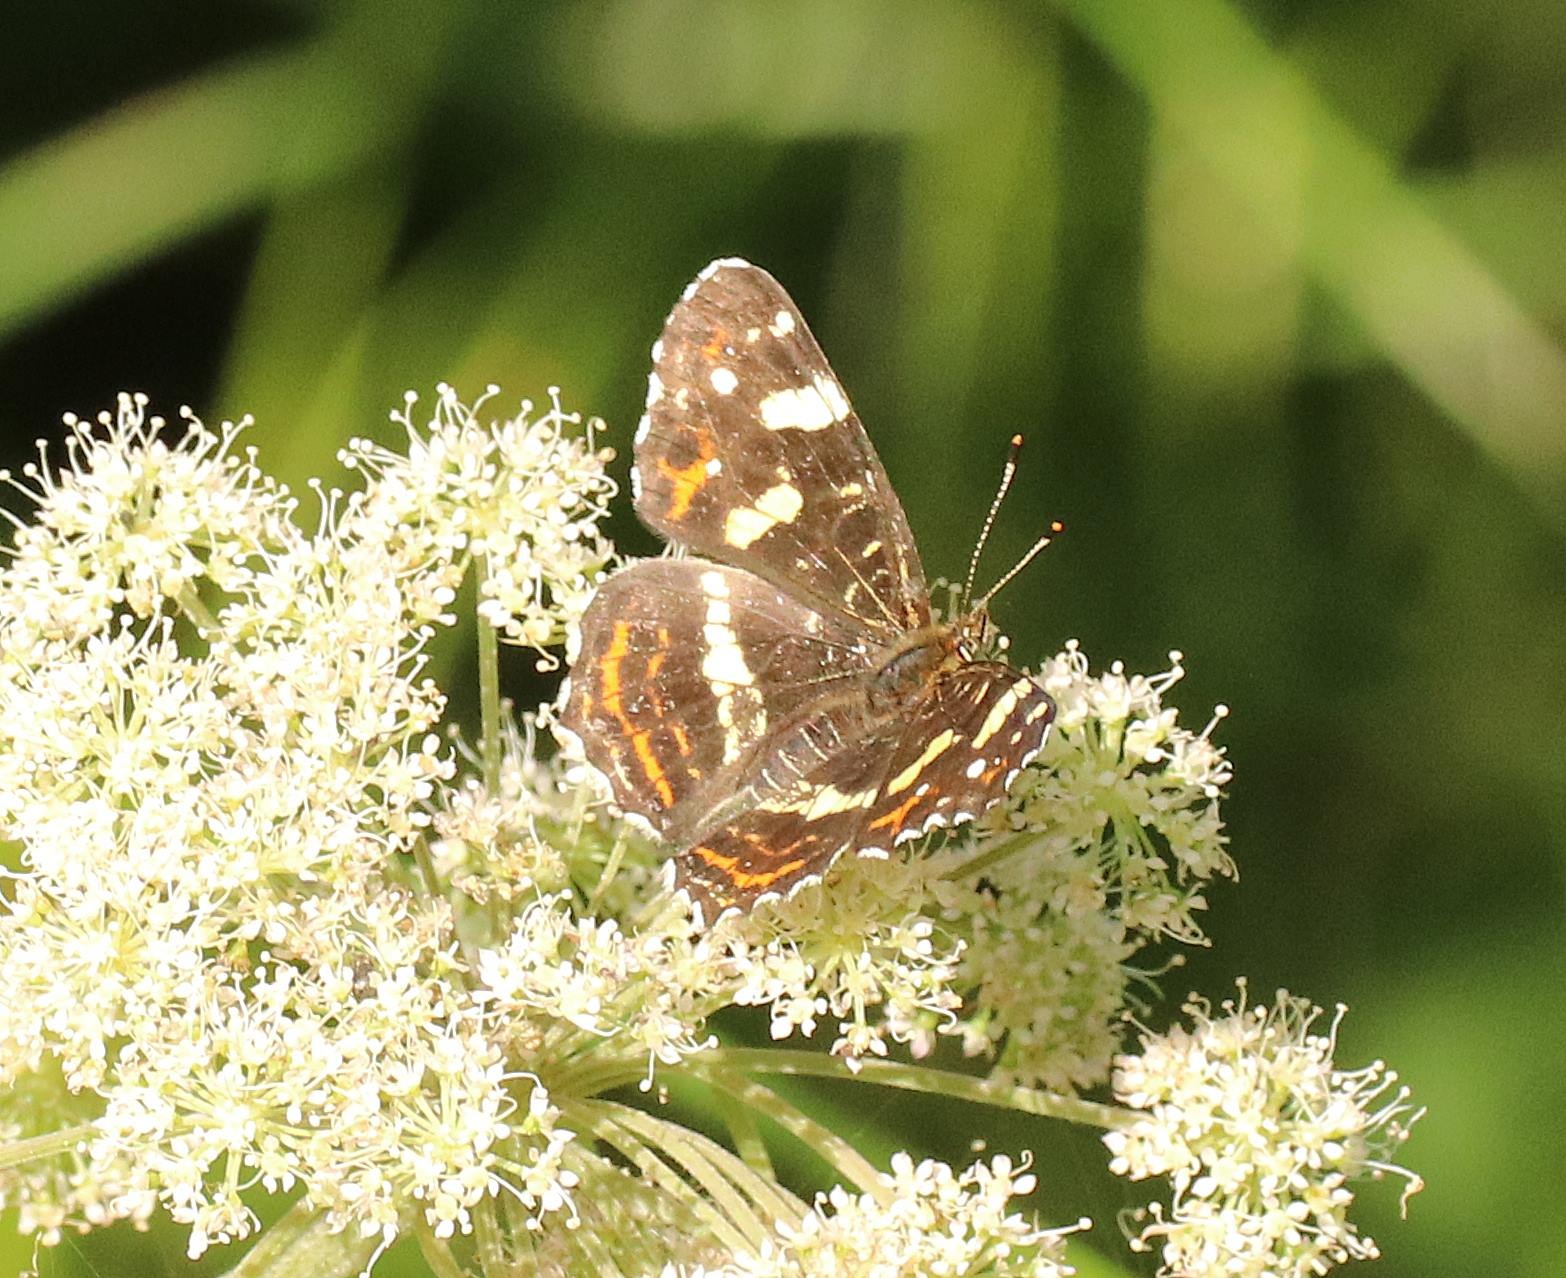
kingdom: Animalia
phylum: Arthropoda
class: Insecta
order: Lepidoptera
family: Nymphalidae
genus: Araschnia
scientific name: Araschnia levana
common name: Nældesommerfugl
